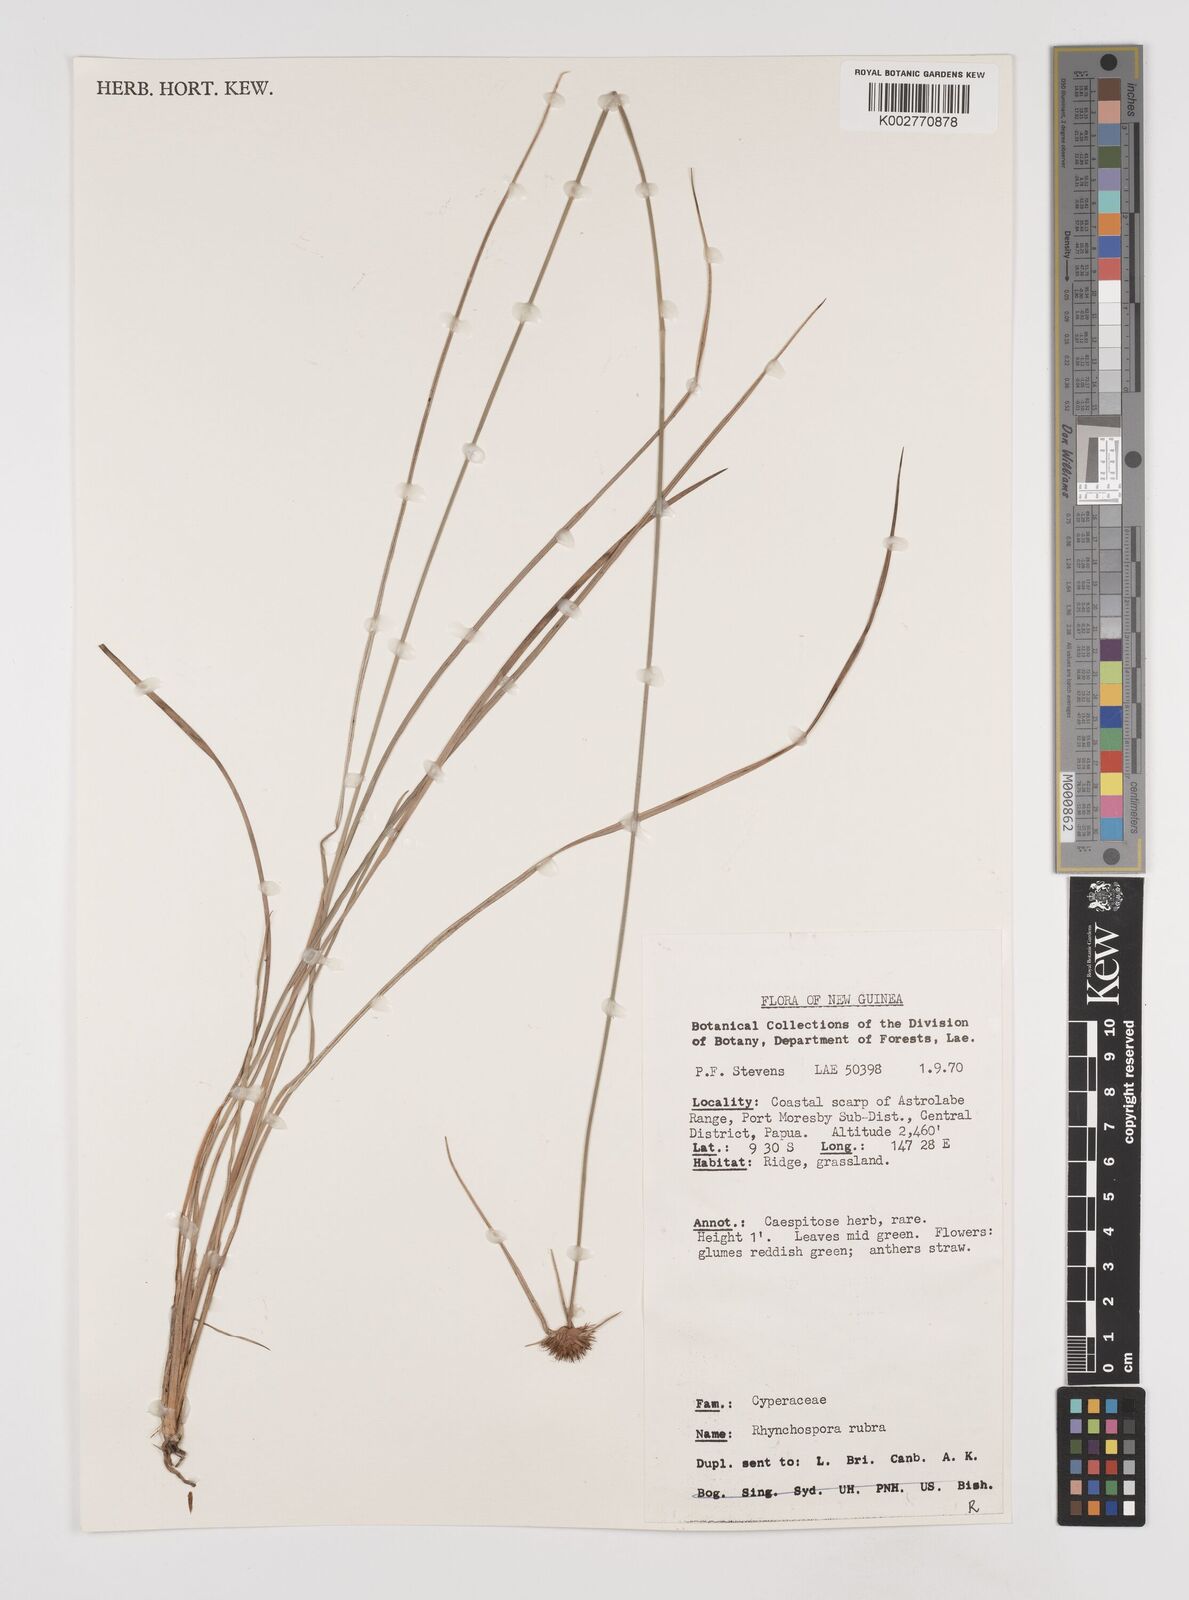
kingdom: Plantae
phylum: Tracheophyta
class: Liliopsida
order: Poales
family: Cyperaceae
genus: Rhynchospora
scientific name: Rhynchospora rubra
